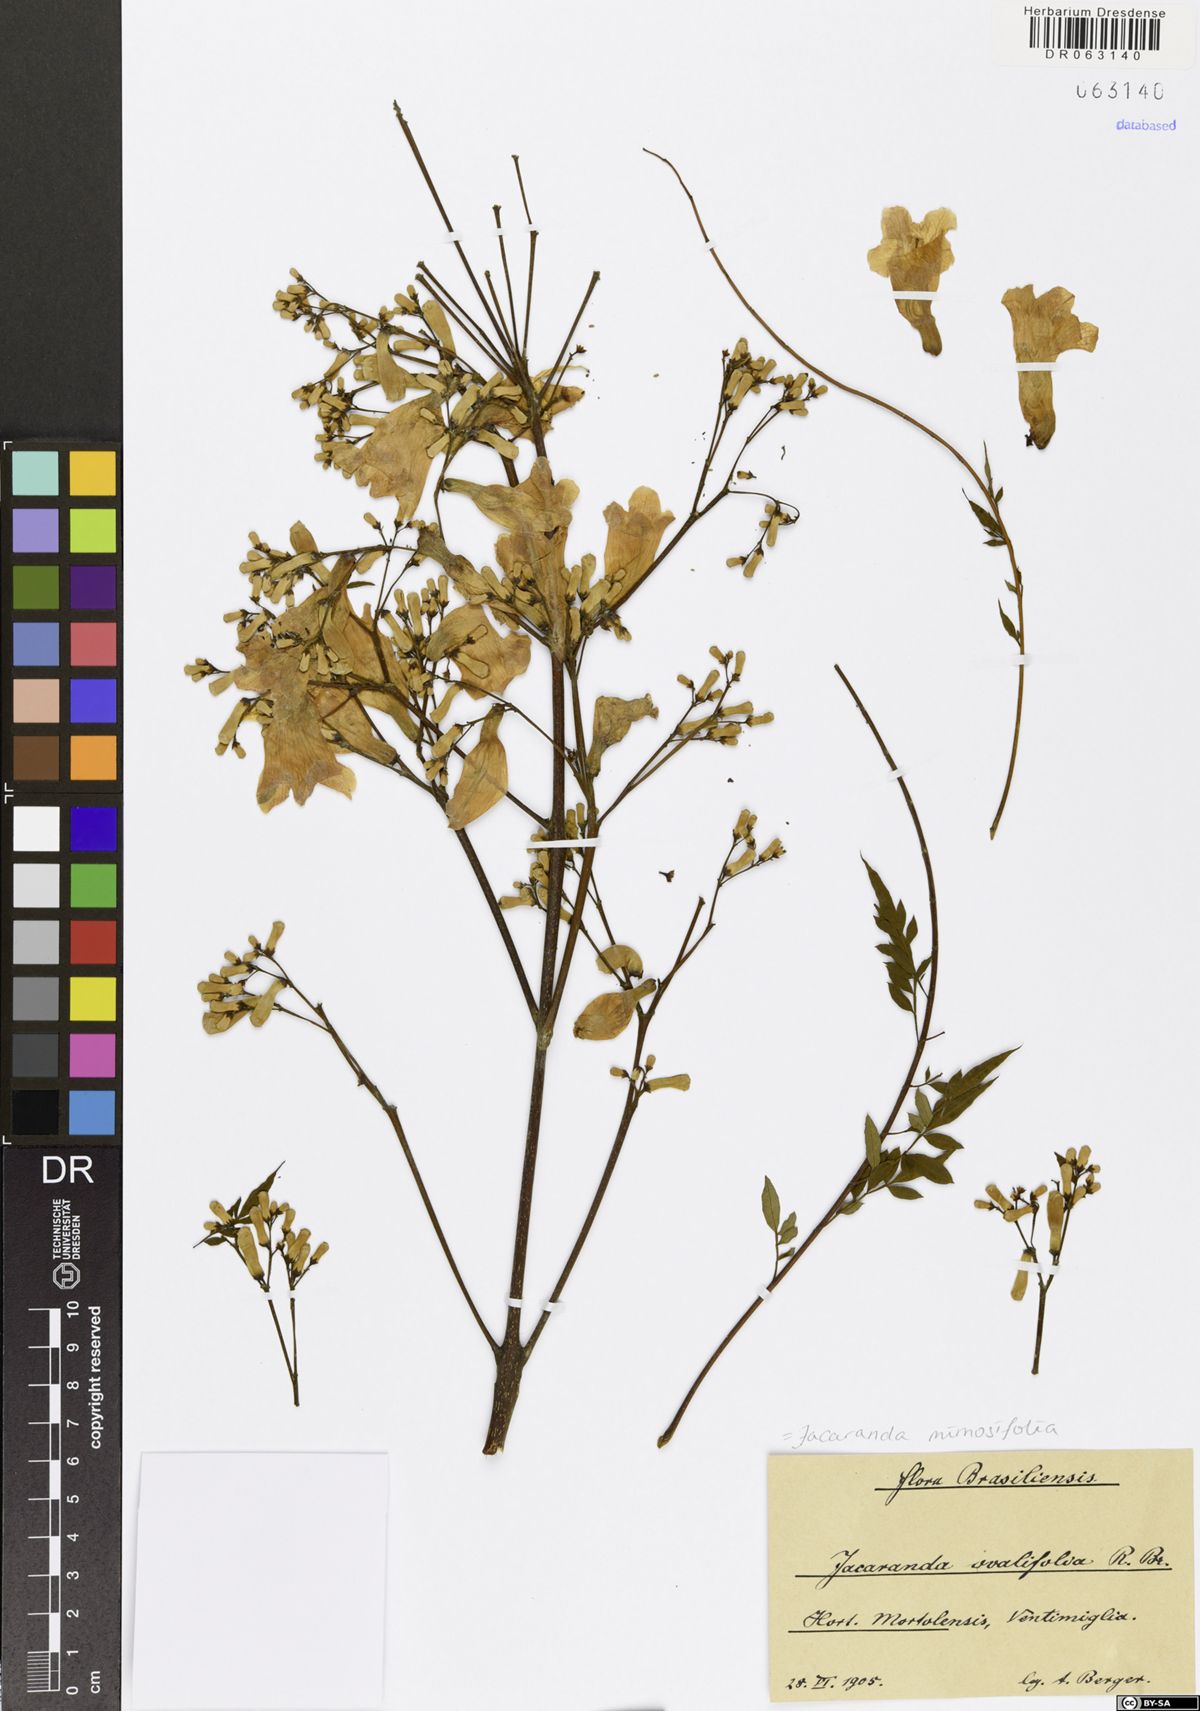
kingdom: Plantae
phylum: Tracheophyta
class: Magnoliopsida
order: Lamiales
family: Bignoniaceae
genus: Jacaranda
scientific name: Jacaranda mimosifolia
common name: Black poui
